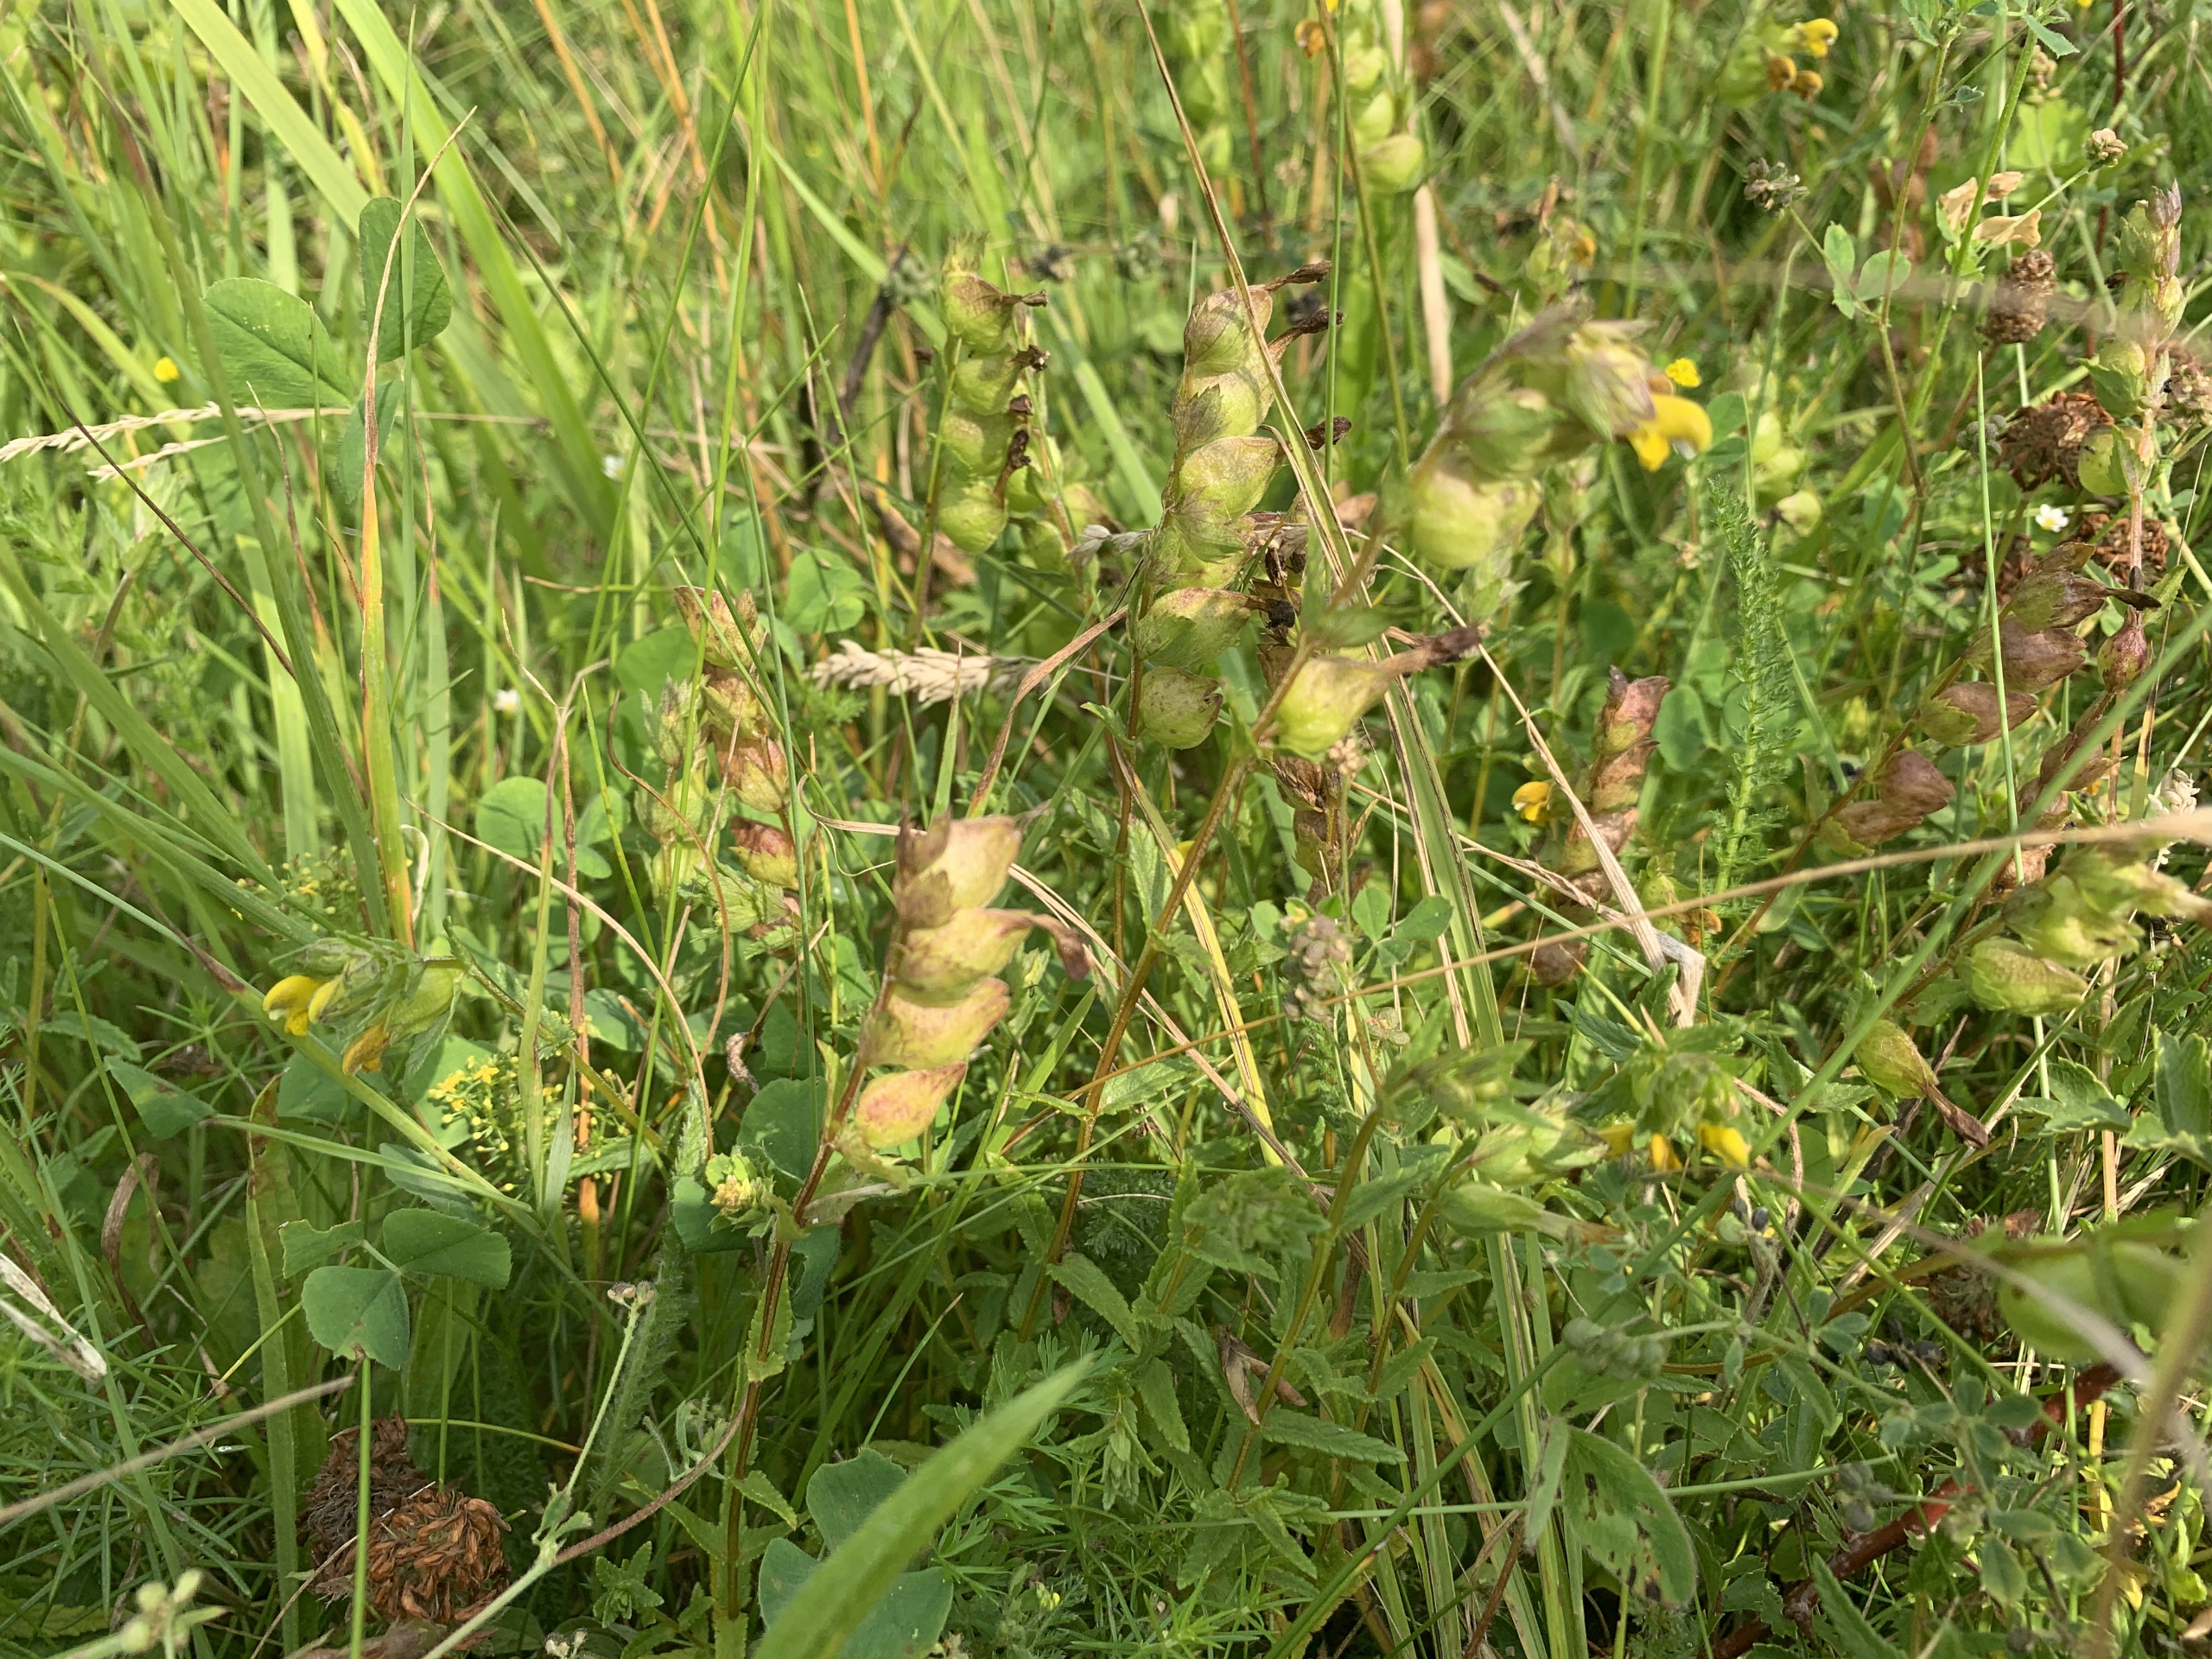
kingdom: Plantae
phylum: Tracheophyta
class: Magnoliopsida
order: Lamiales
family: Orobanchaceae
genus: Rhinanthus
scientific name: Rhinanthus minor
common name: Liden skjaller
